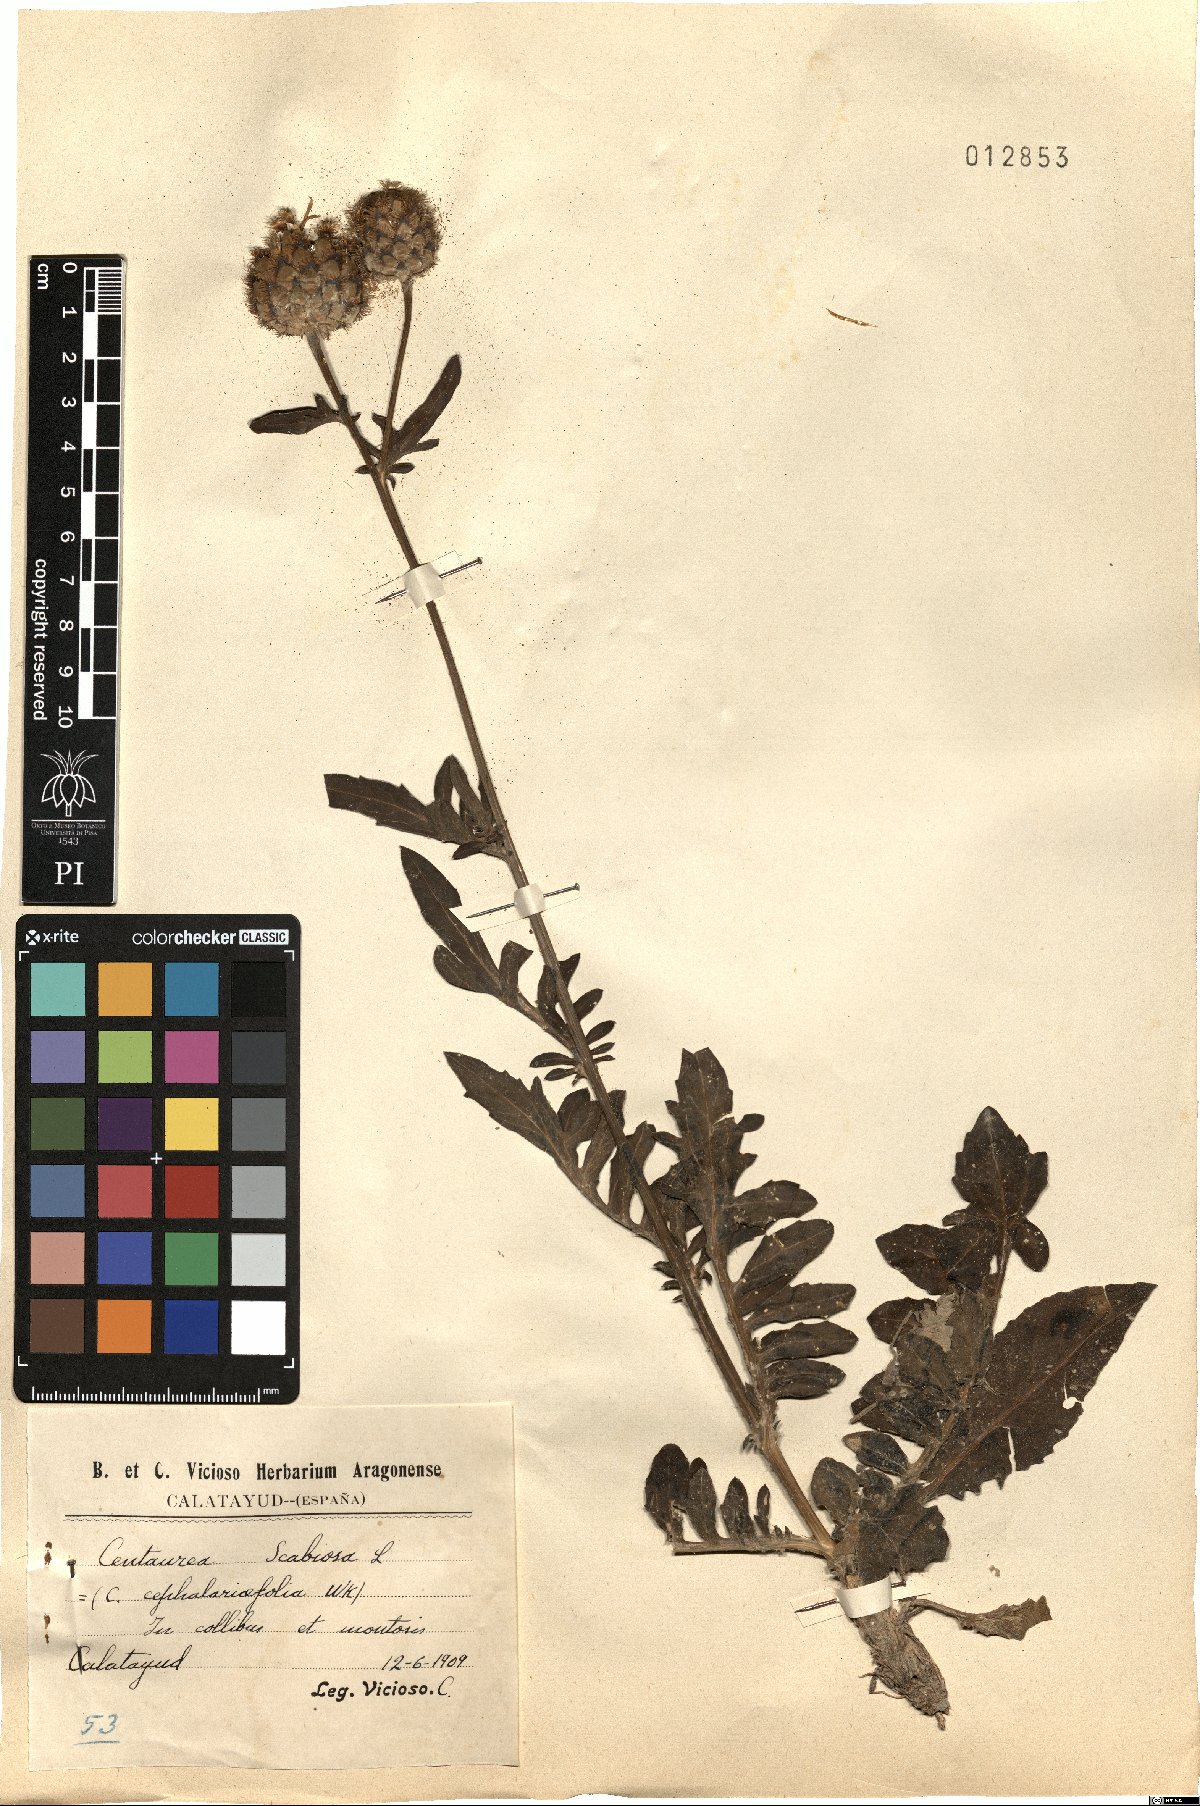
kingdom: Plantae
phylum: Tracheophyta
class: Magnoliopsida
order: Asterales
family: Asteraceae
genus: Centaurea
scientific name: Centaurea scabiosa
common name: Greater knapweed
